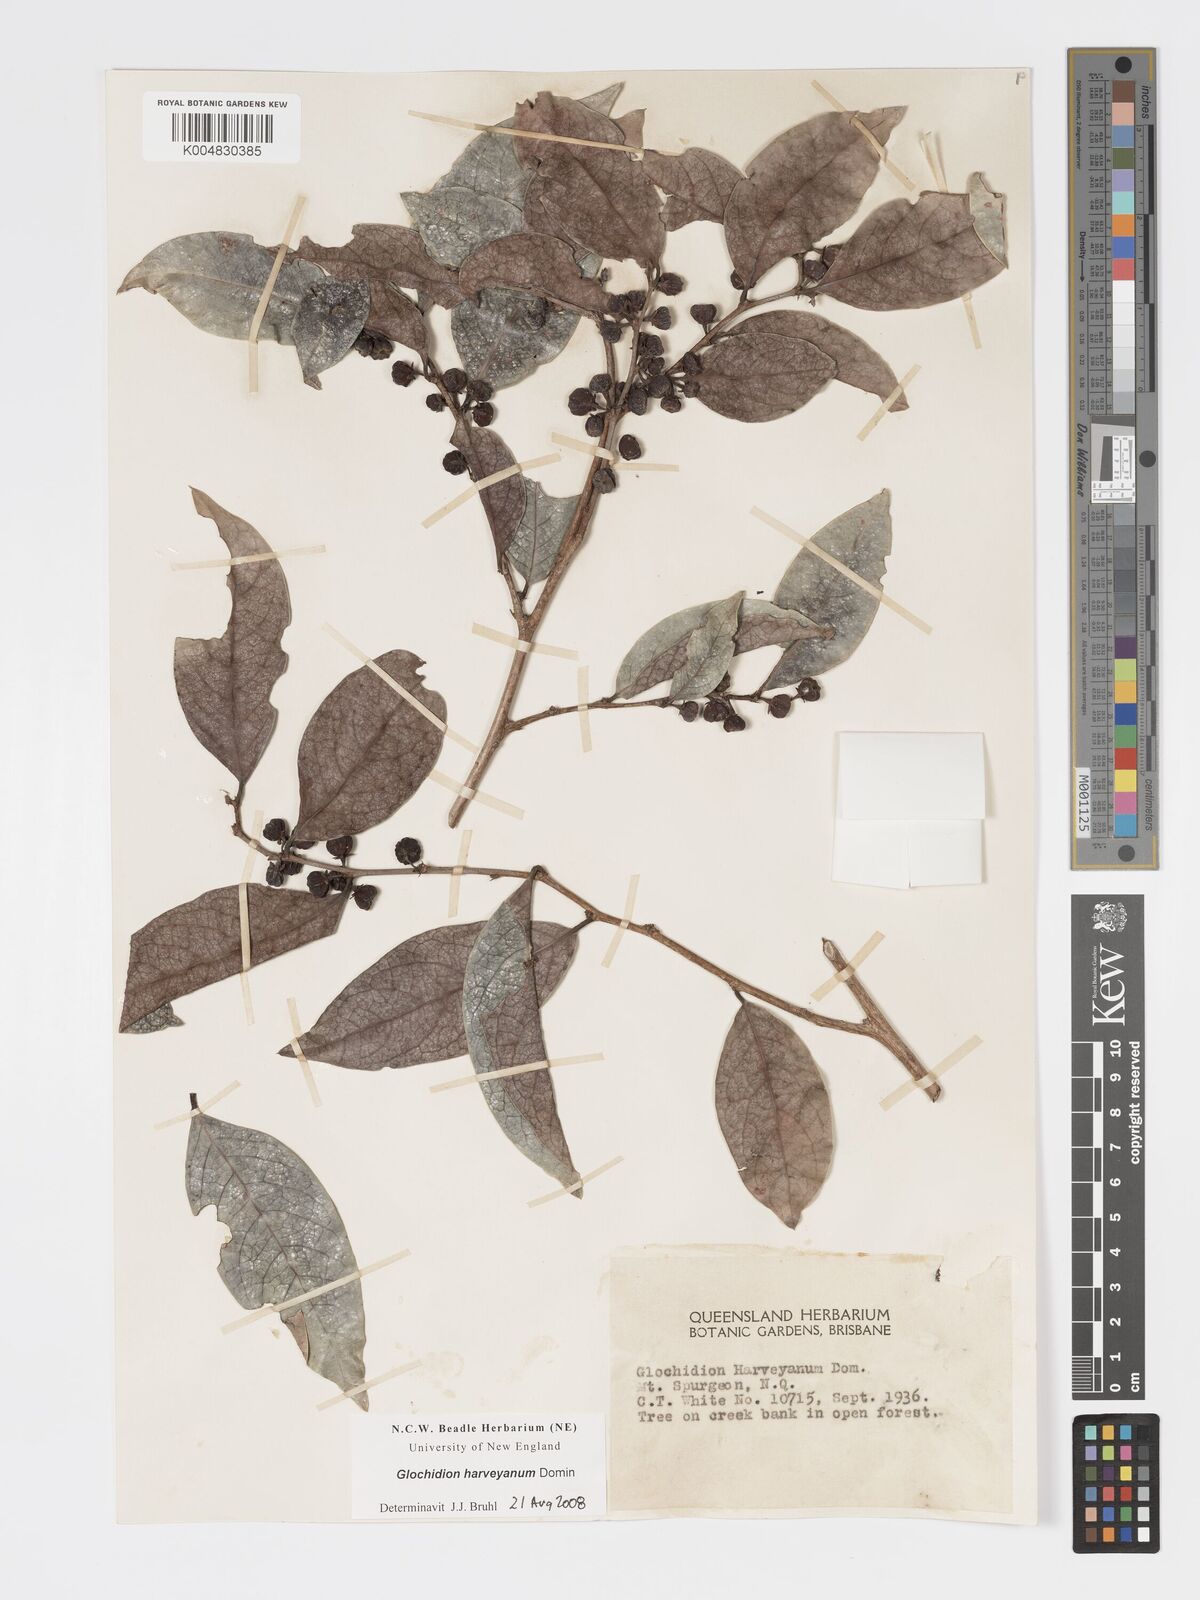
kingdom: Plantae
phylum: Tracheophyta
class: Magnoliopsida
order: Malpighiales
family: Phyllanthaceae
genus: Glochidion
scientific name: Glochidion harveyanum
